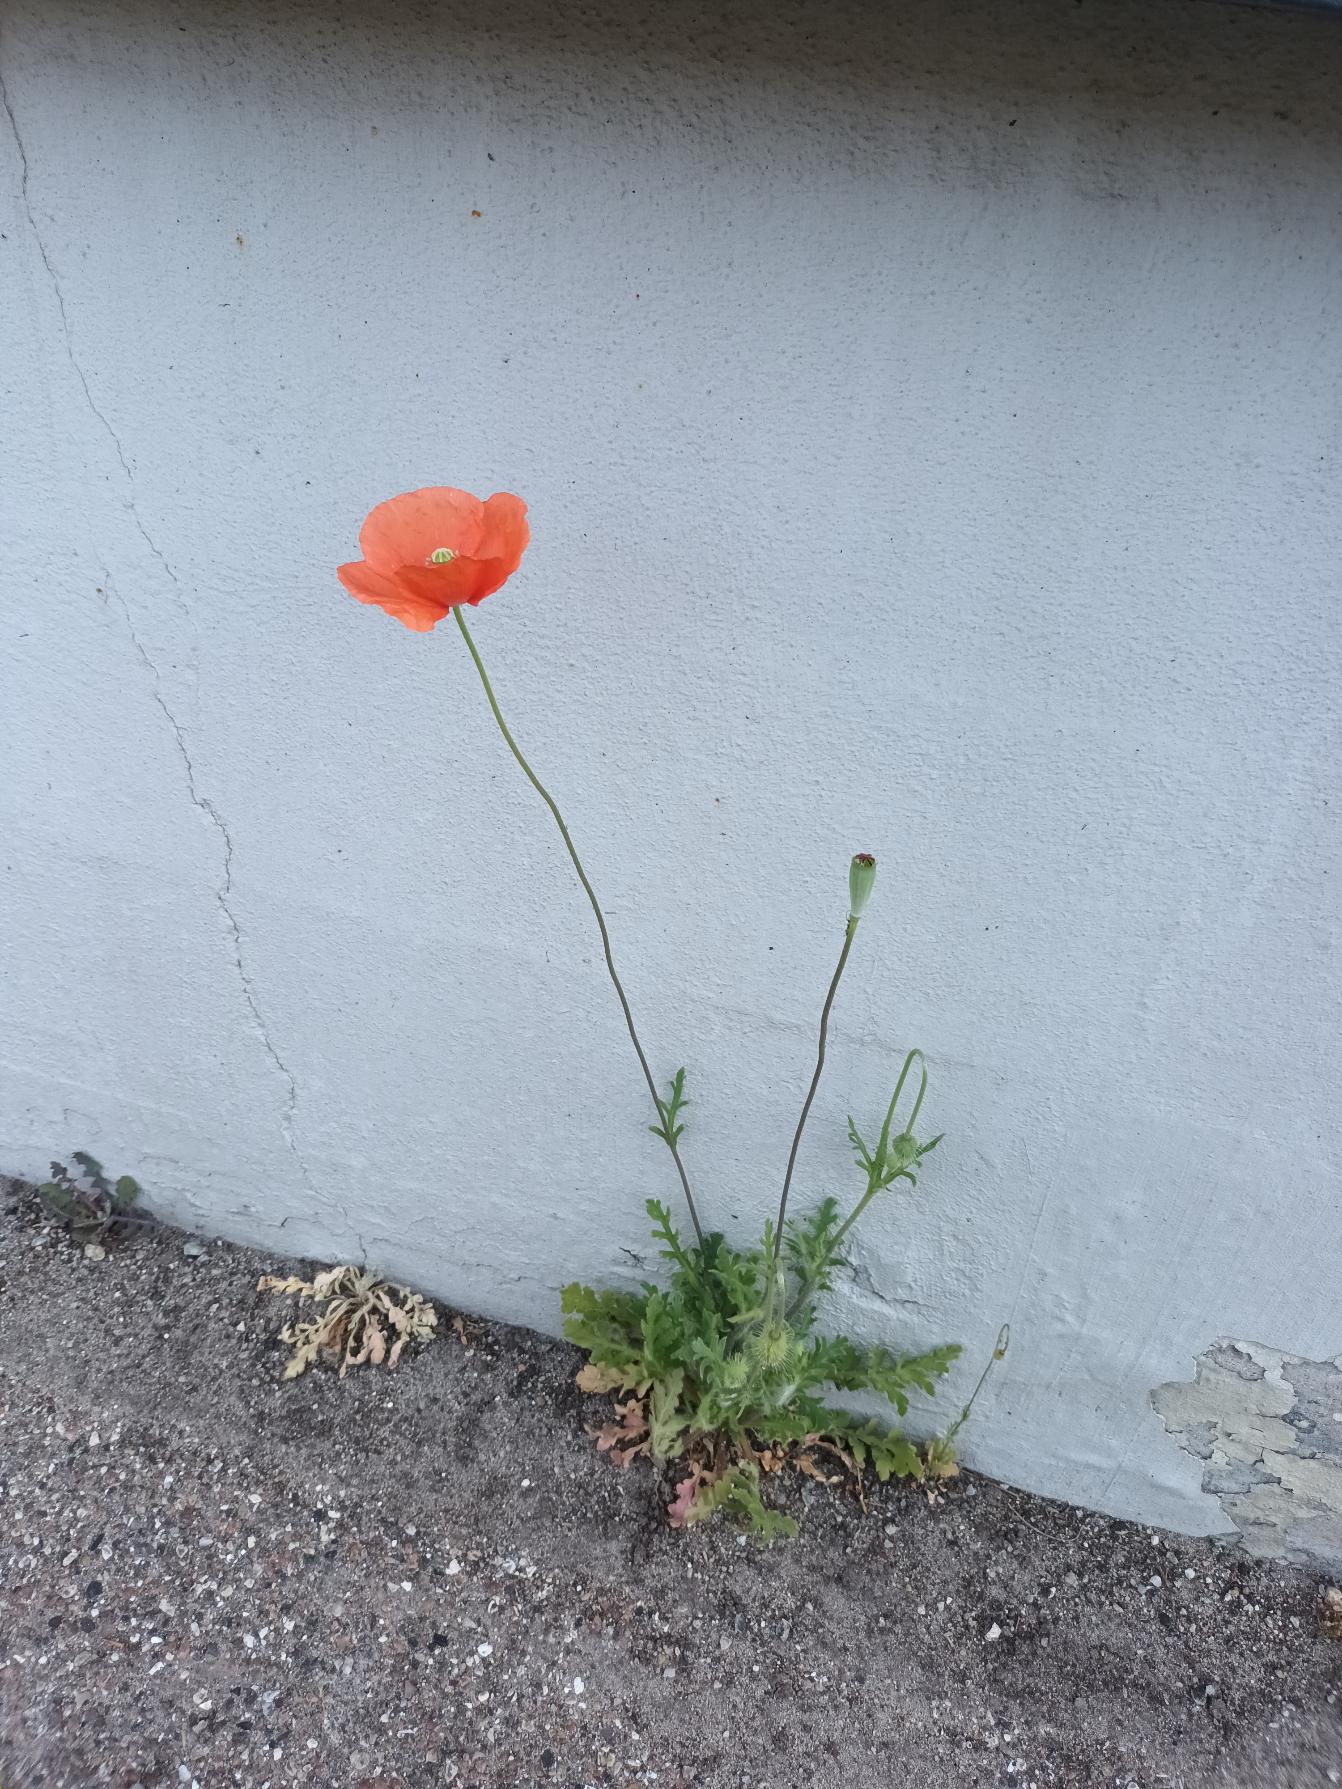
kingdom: Plantae
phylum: Tracheophyta
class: Magnoliopsida
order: Ranunculales
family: Papaveraceae
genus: Papaver
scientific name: Papaver dubium
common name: Gærde-valmue
